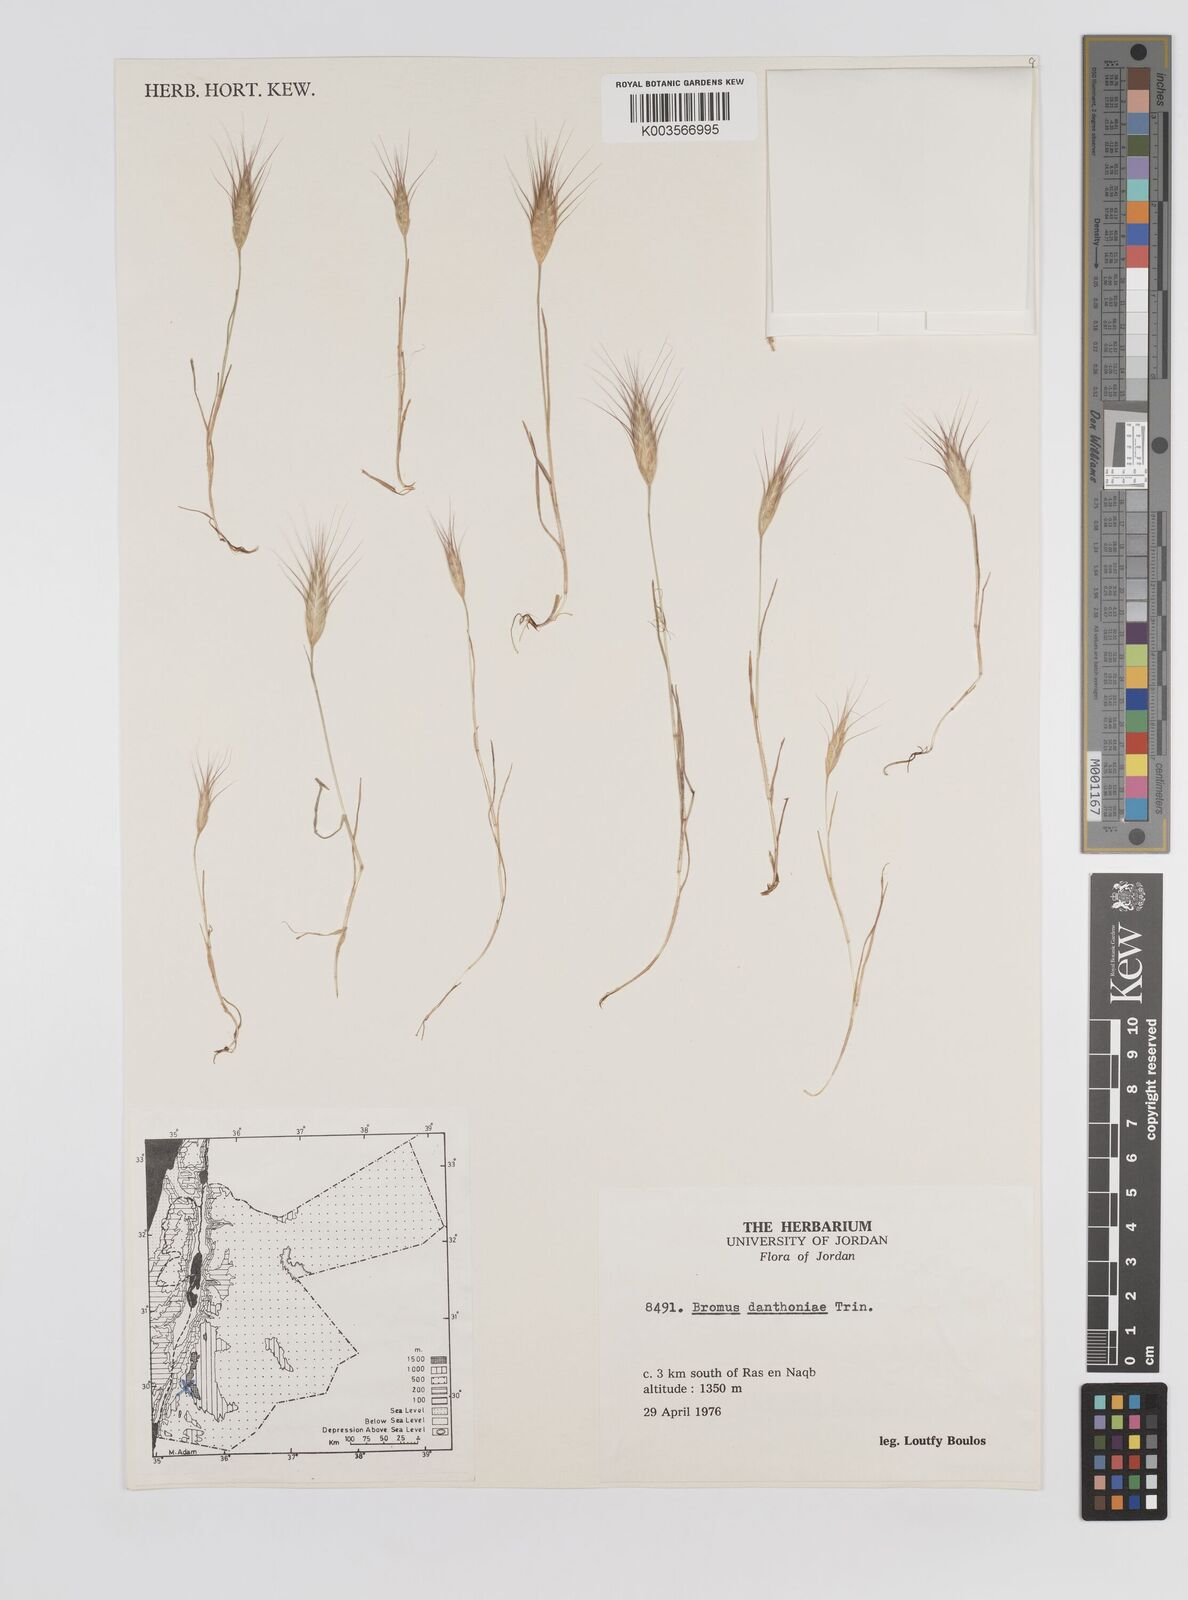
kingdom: Plantae
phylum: Tracheophyta
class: Liliopsida
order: Poales
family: Poaceae
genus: Bromus
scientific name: Bromus danthoniae
